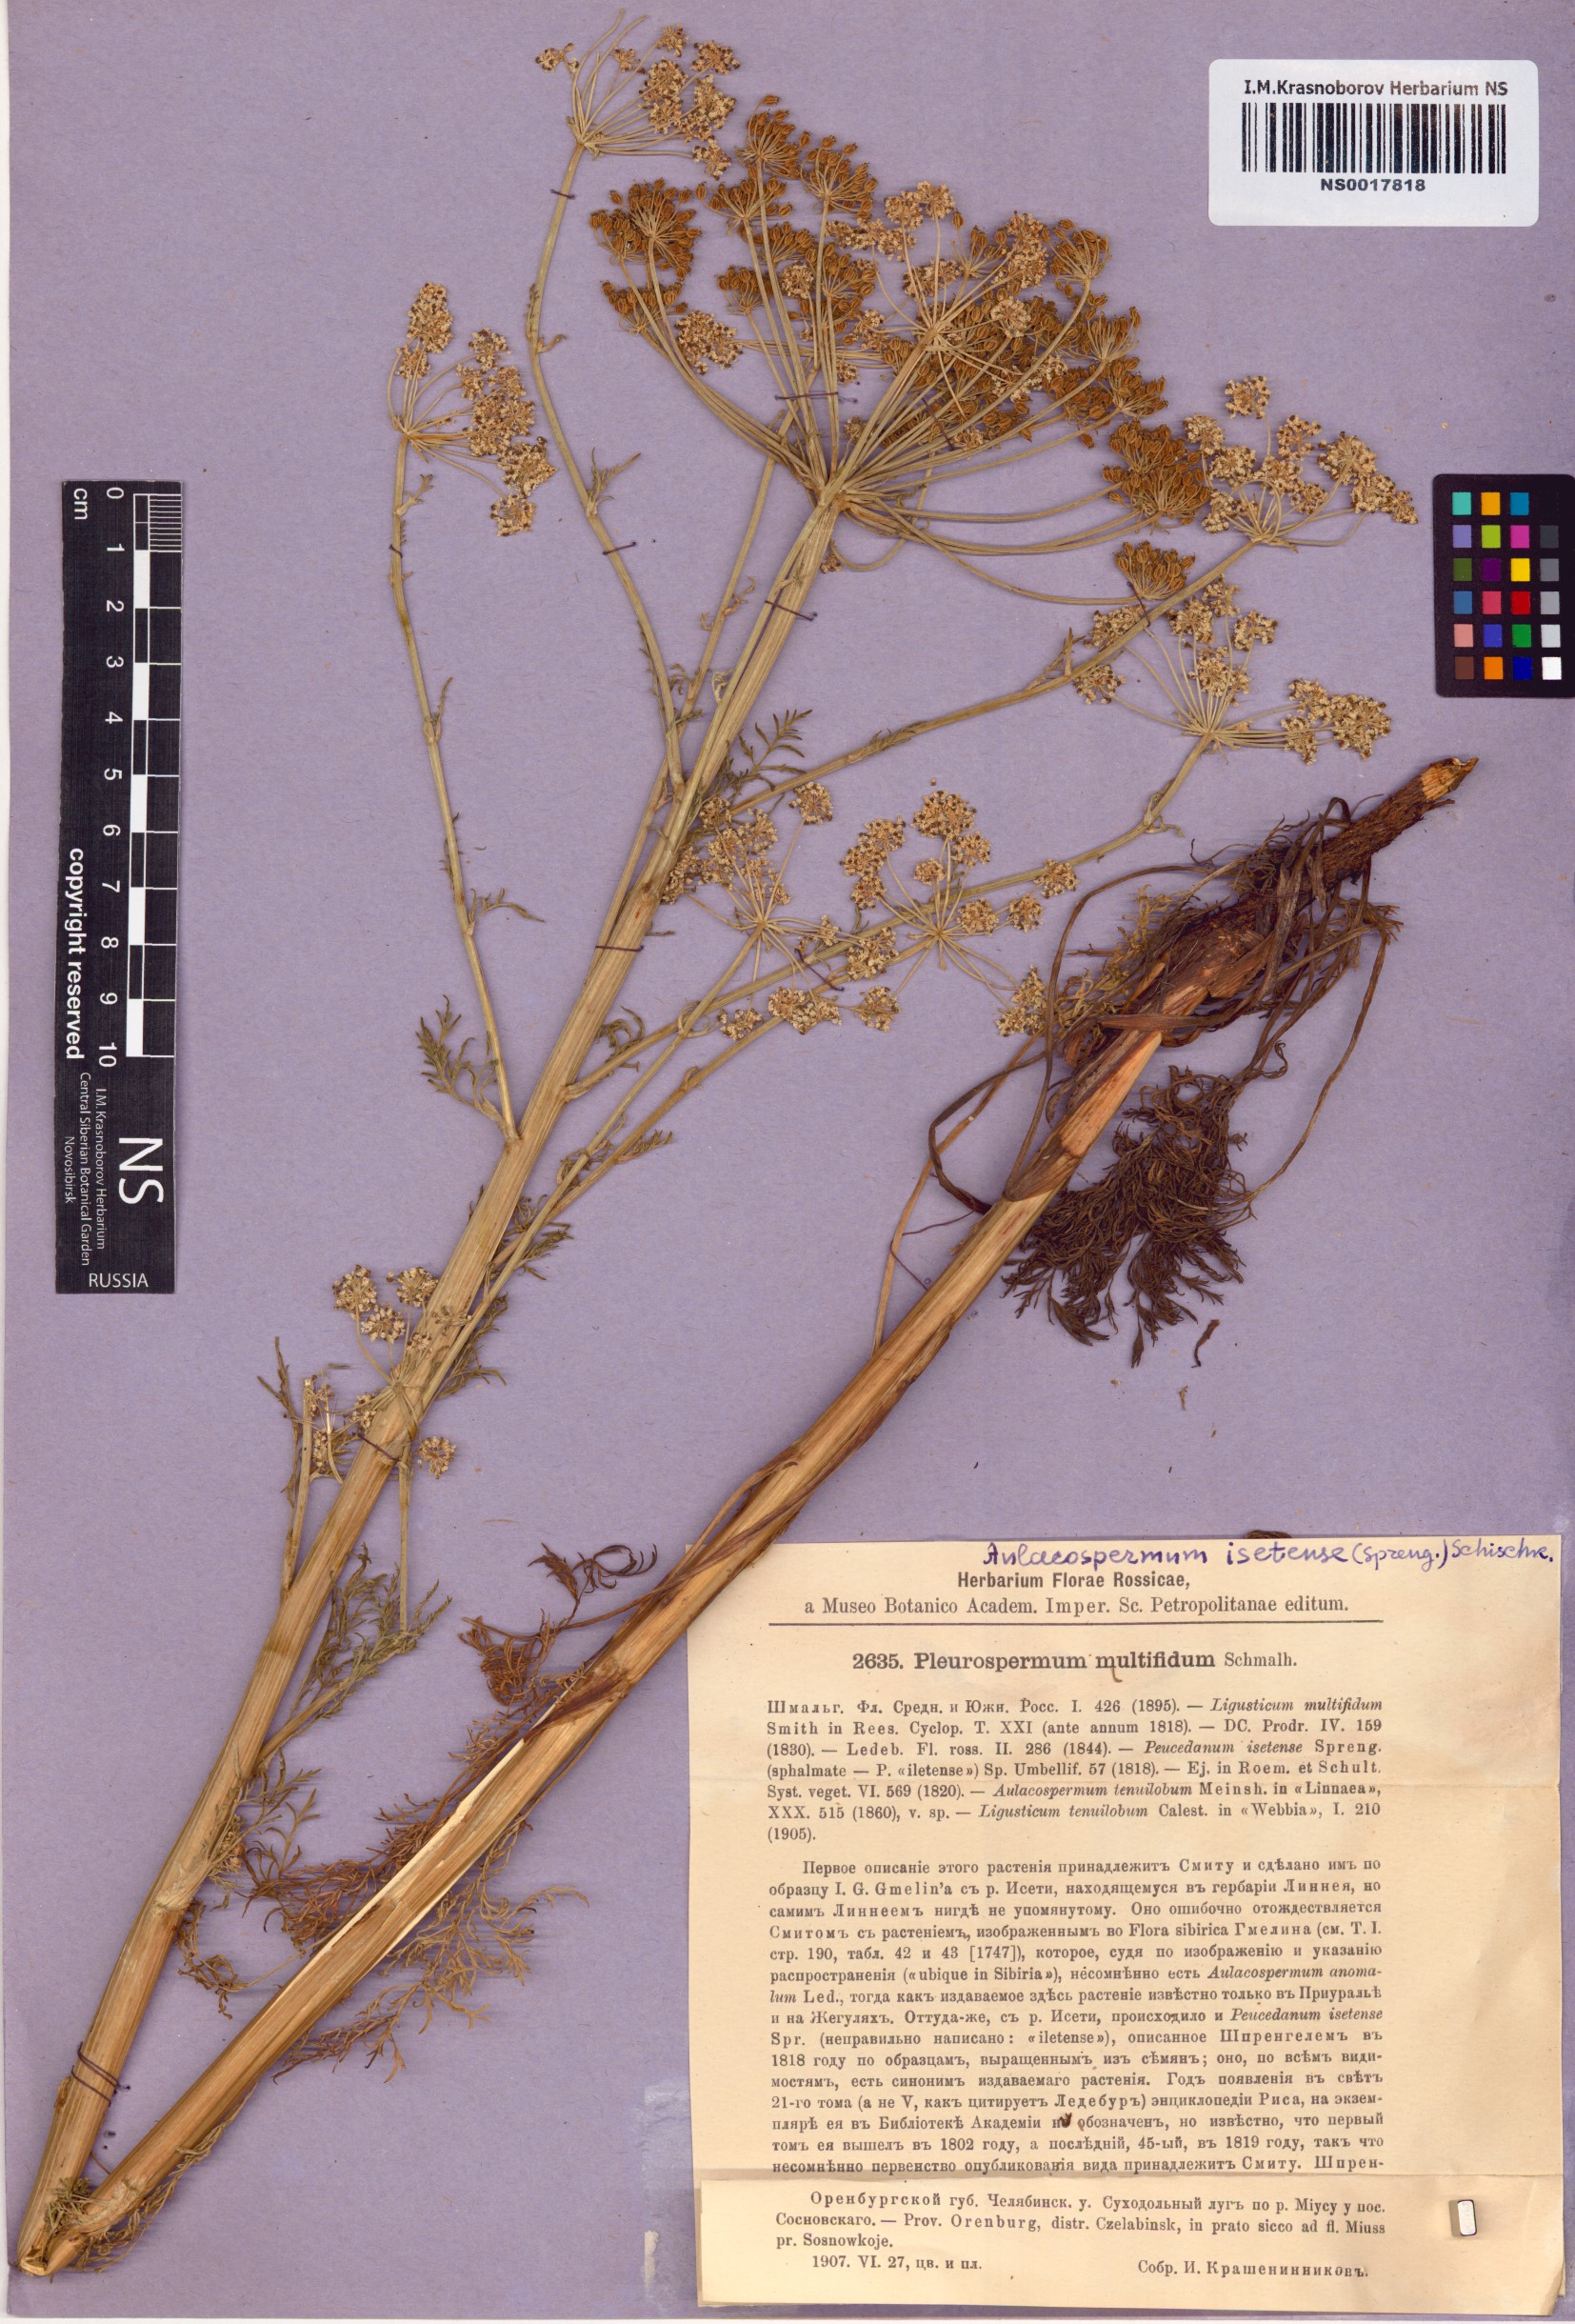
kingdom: Plantae
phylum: Tracheophyta
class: Magnoliopsida
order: Apiales
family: Apiaceae
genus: Aulacospermum
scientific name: Aulacospermum multifidum
